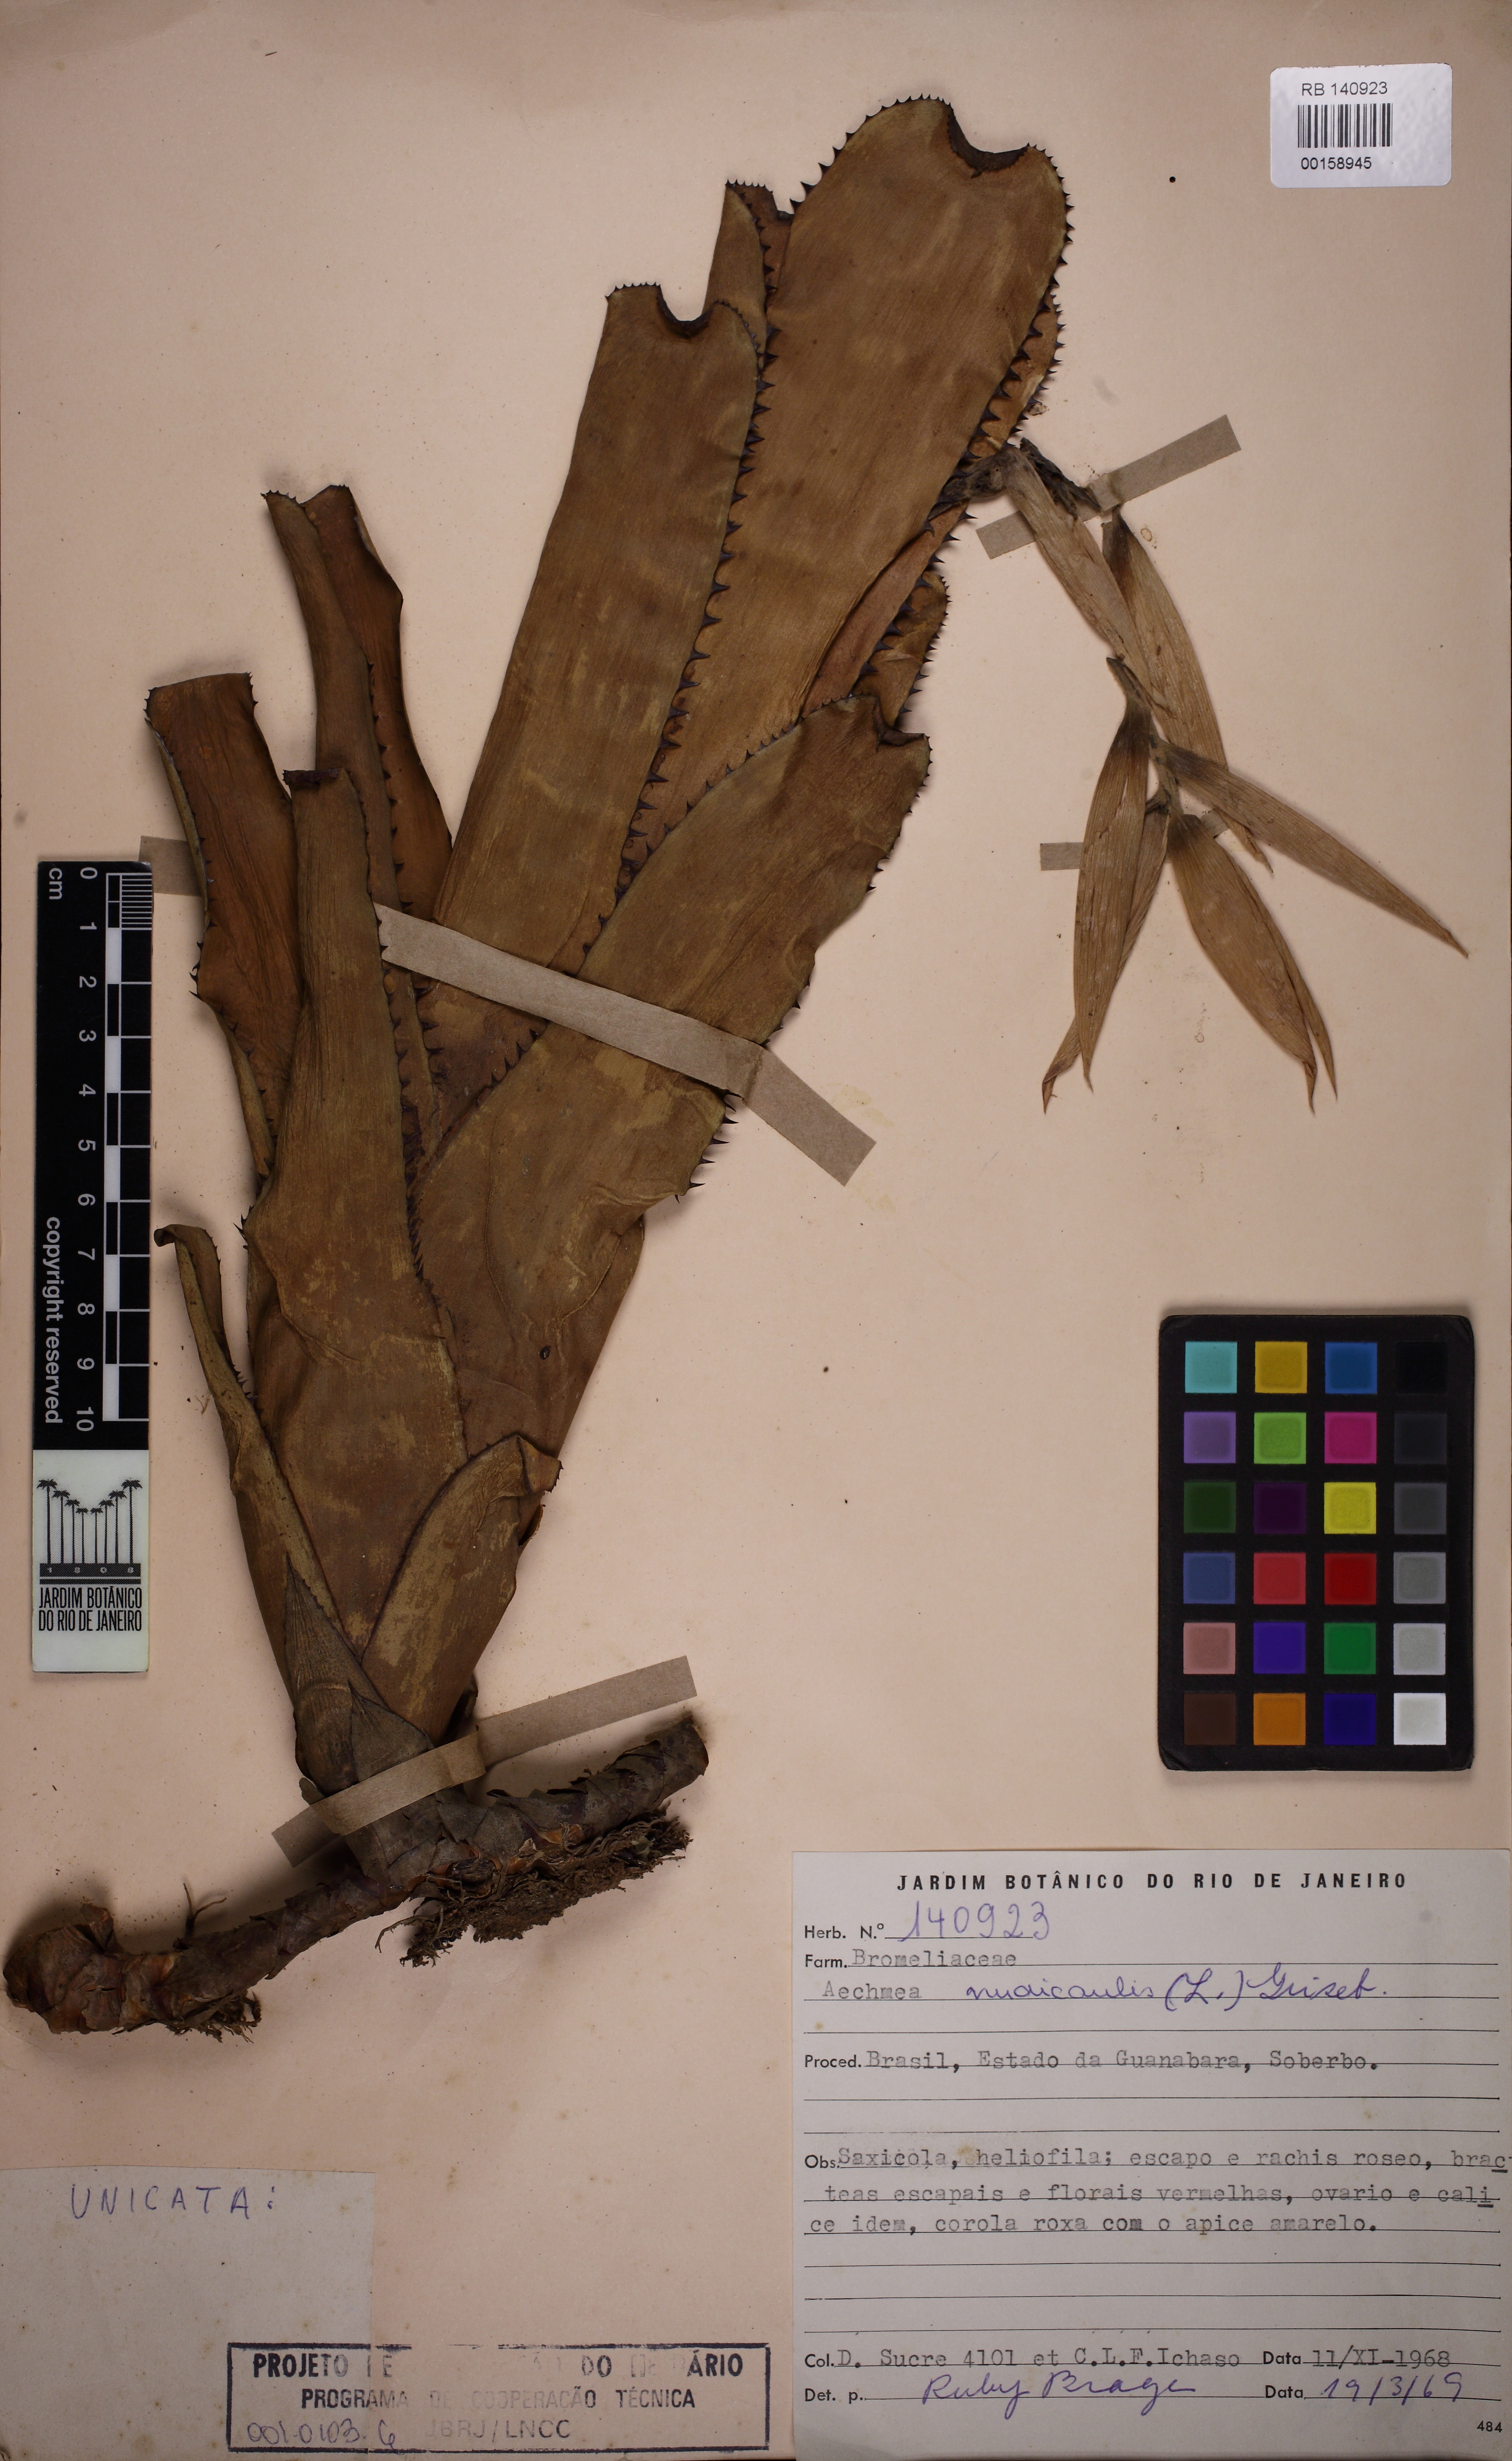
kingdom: Plantae
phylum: Tracheophyta
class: Liliopsida
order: Poales
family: Bromeliaceae
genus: Aechmea
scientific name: Aechmea nudicaulis
